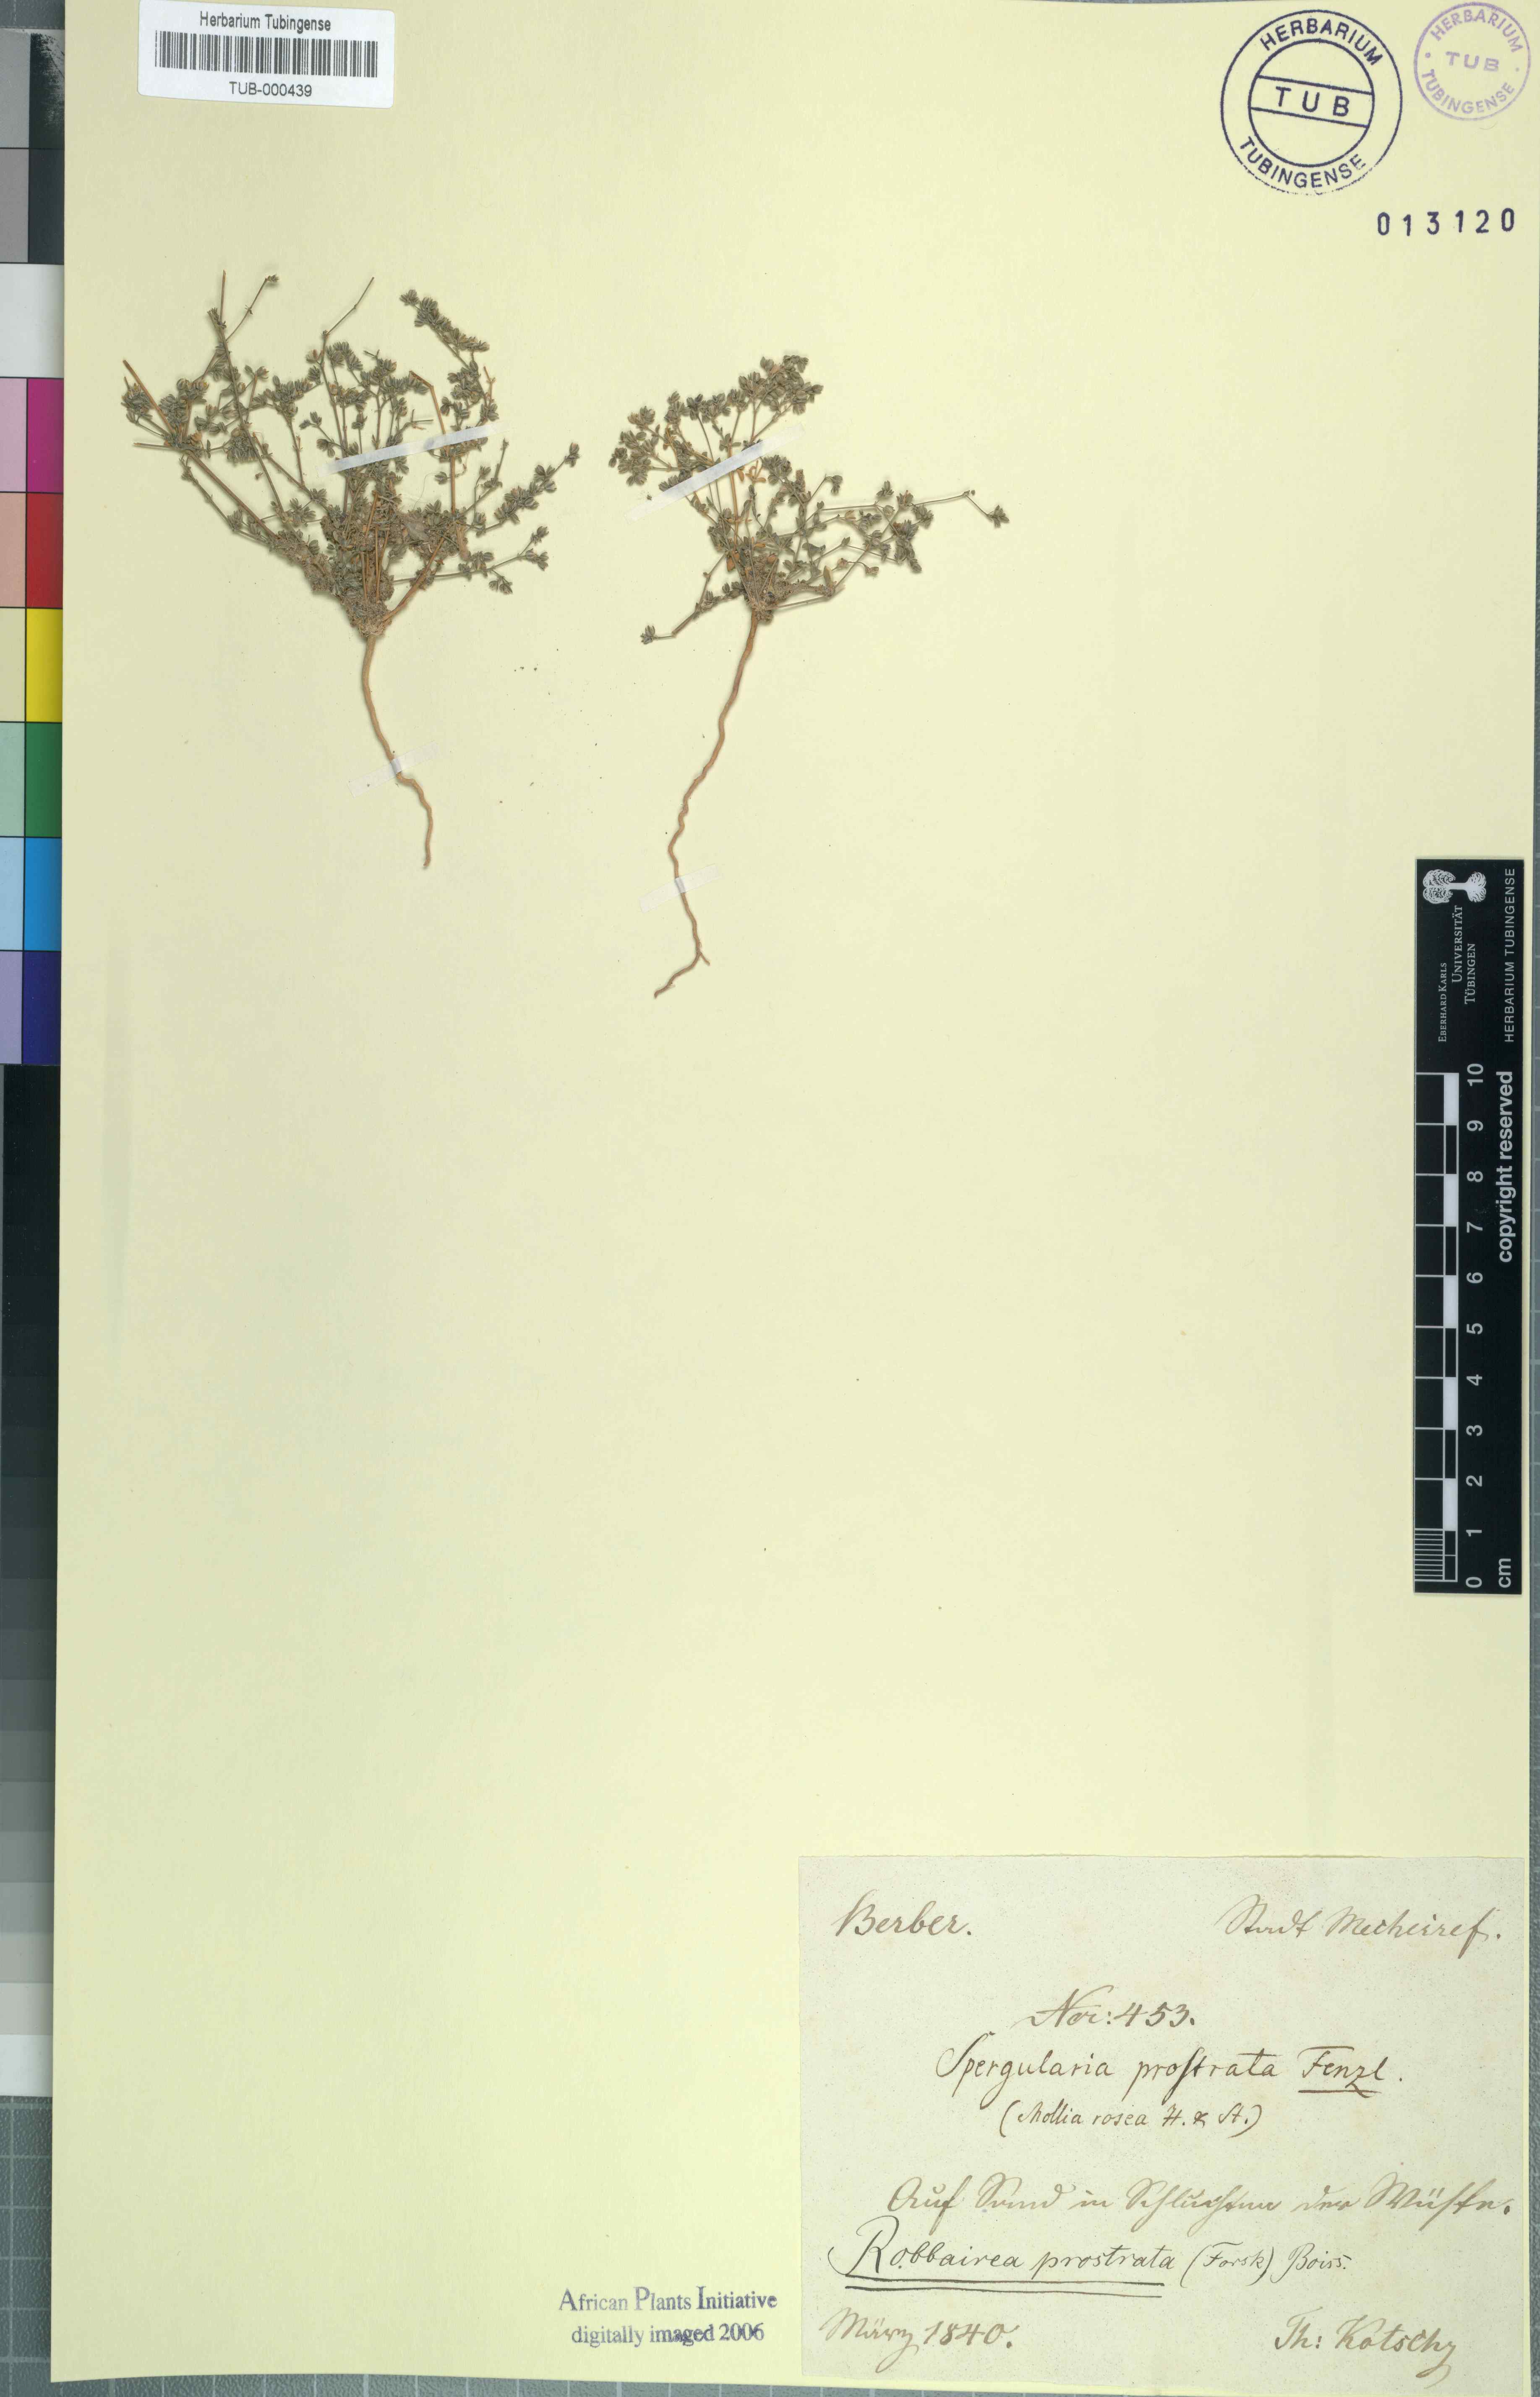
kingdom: Plantae
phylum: Tracheophyta
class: Magnoliopsida
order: Caryophyllales
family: Caryophyllaceae
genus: Polycarpon
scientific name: Polycarpon prostratum
